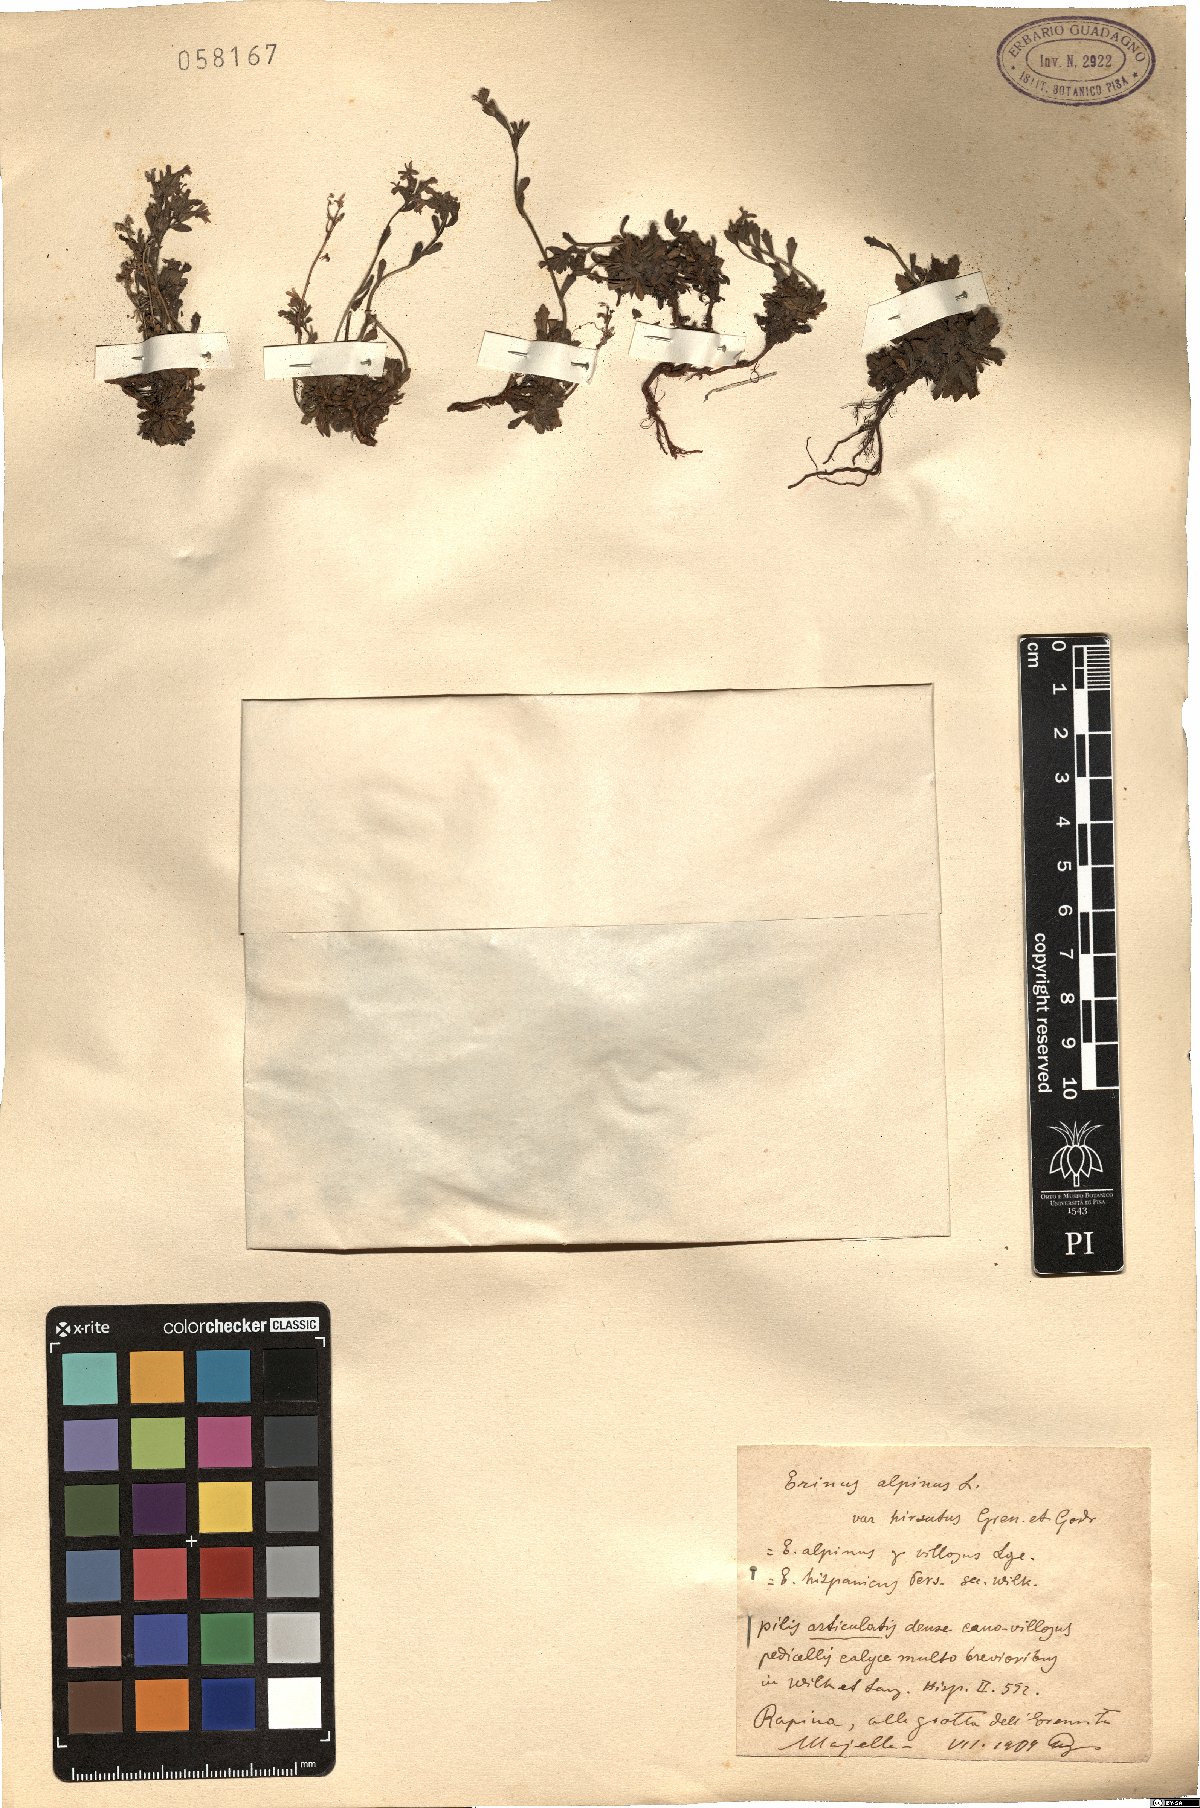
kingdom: Plantae
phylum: Tracheophyta
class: Magnoliopsida
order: Lamiales
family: Plantaginaceae
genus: Erinus
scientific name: Erinus alpinus
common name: Fairy foxglove
